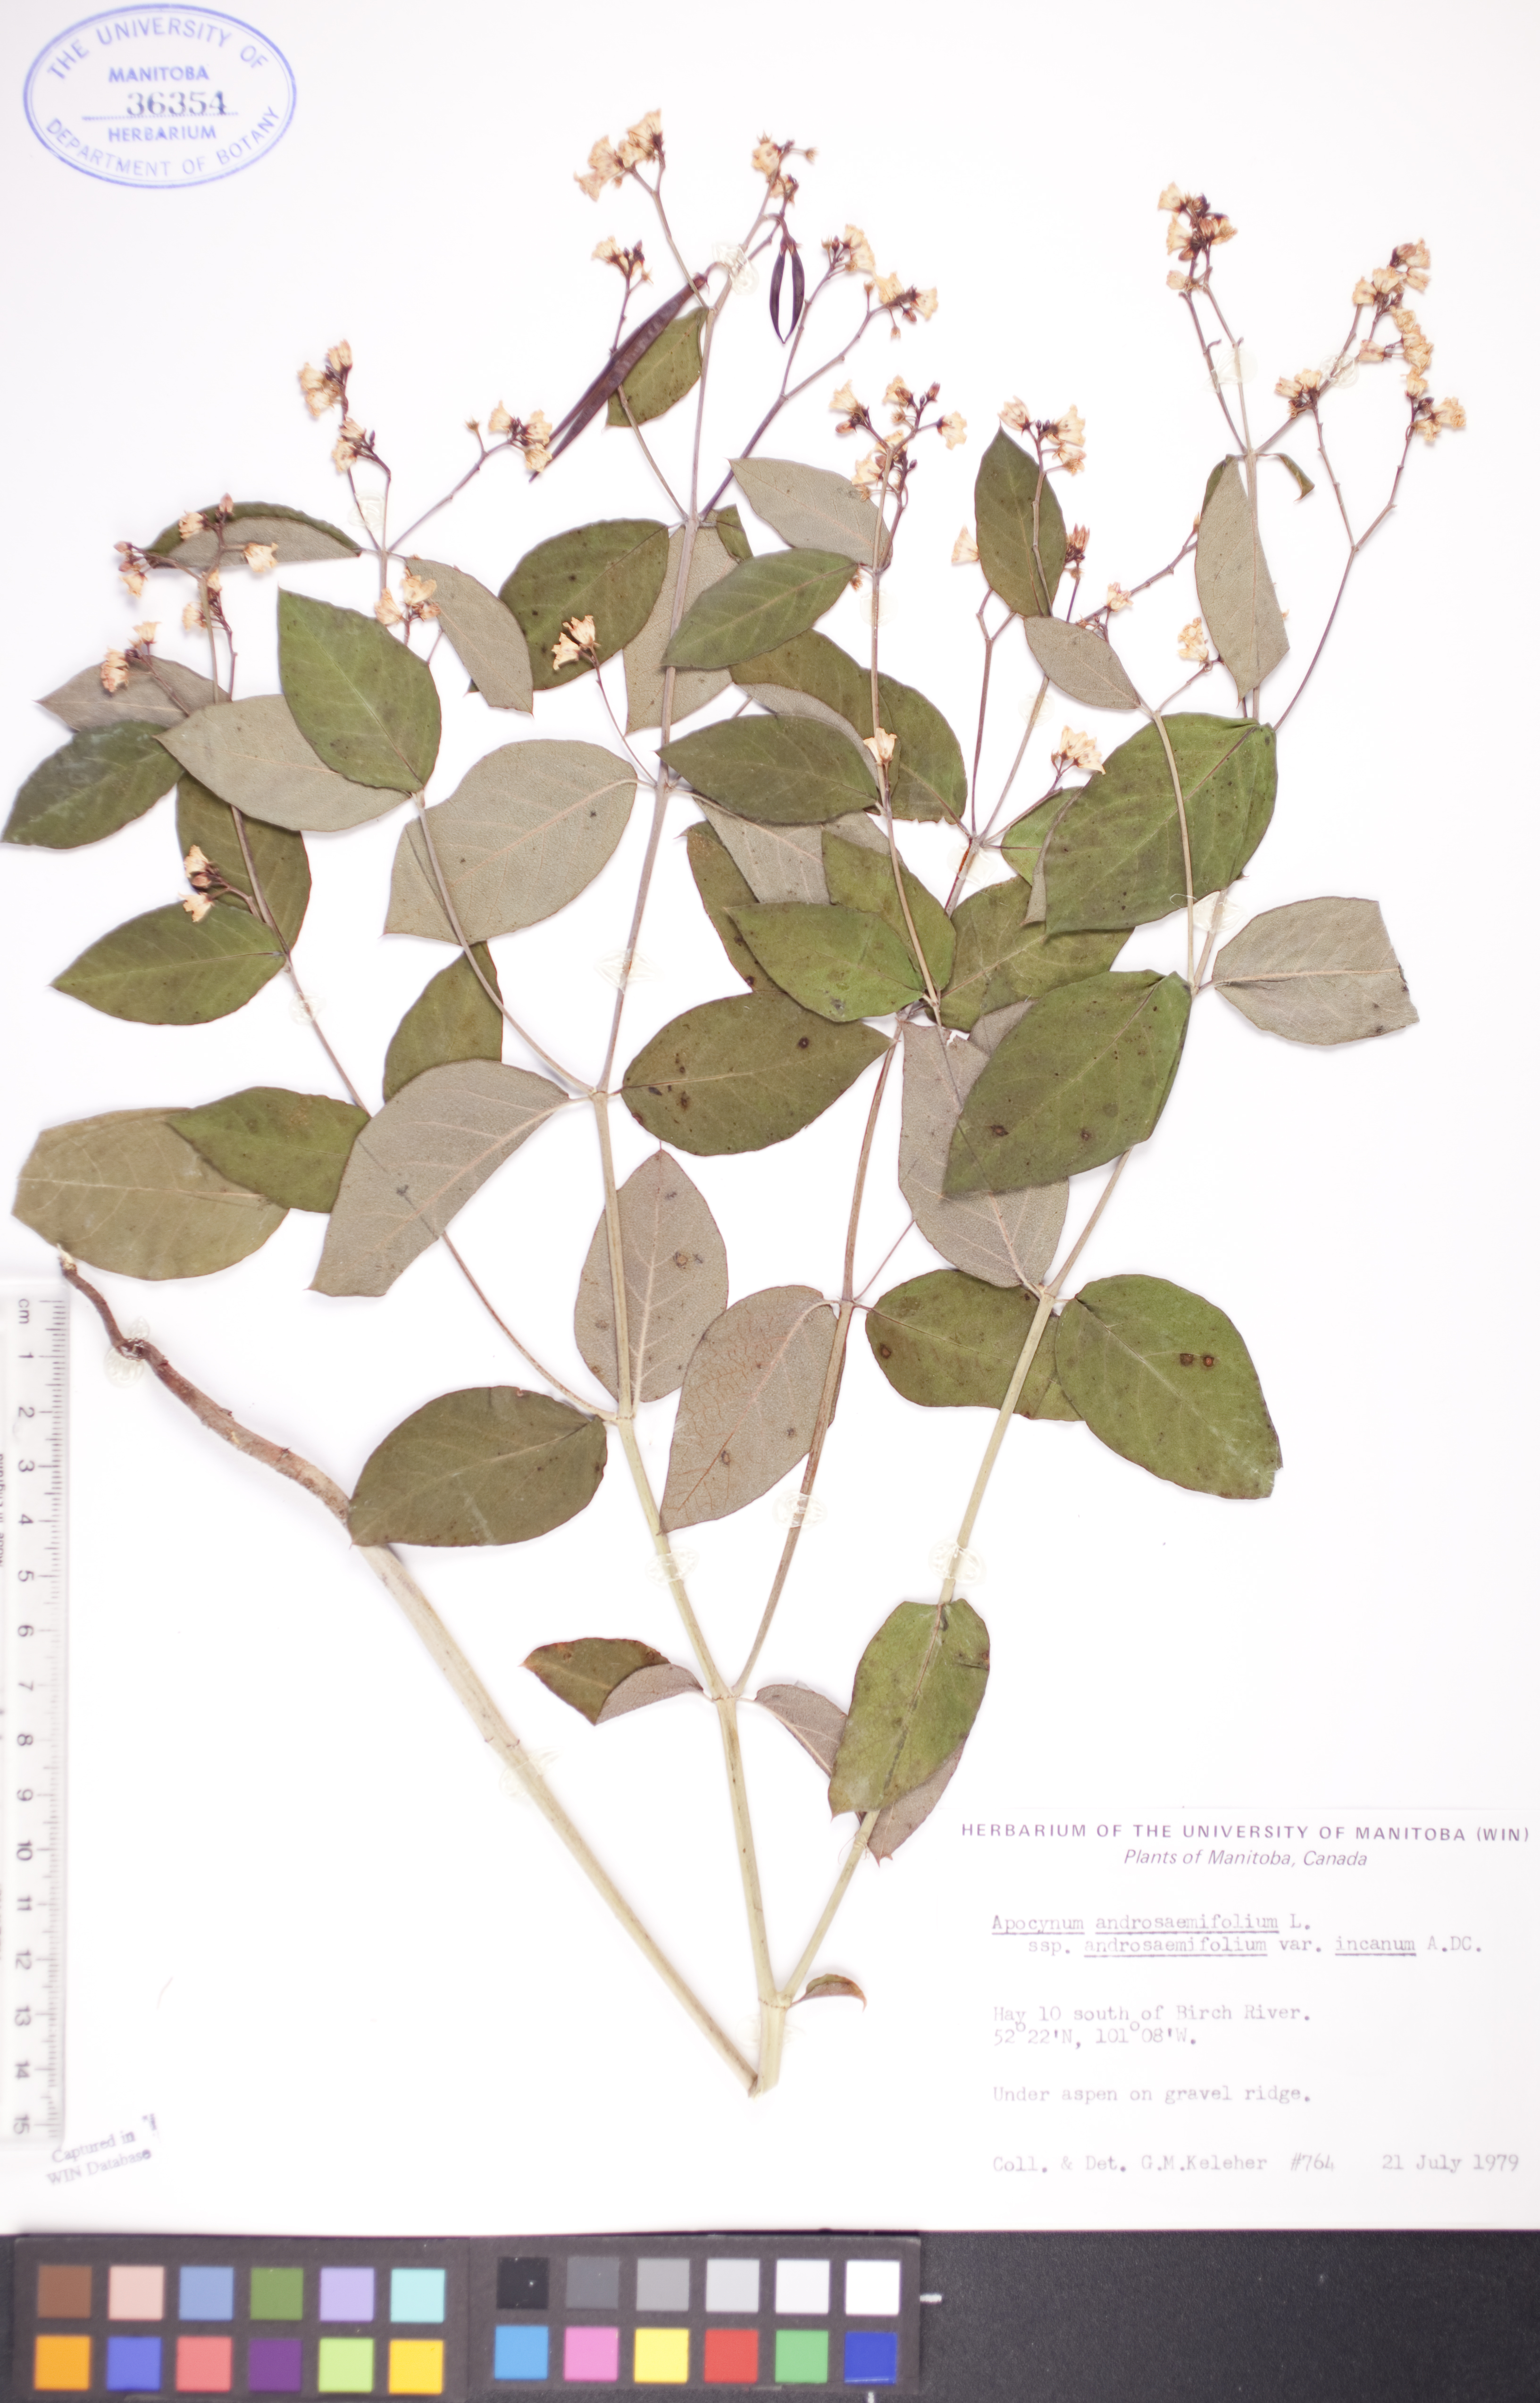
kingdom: Plantae
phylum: Tracheophyta
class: Magnoliopsida
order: Gentianales
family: Apocynaceae
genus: Apocynum
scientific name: Apocynum androsaemifolium
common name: Spreading dogbane
